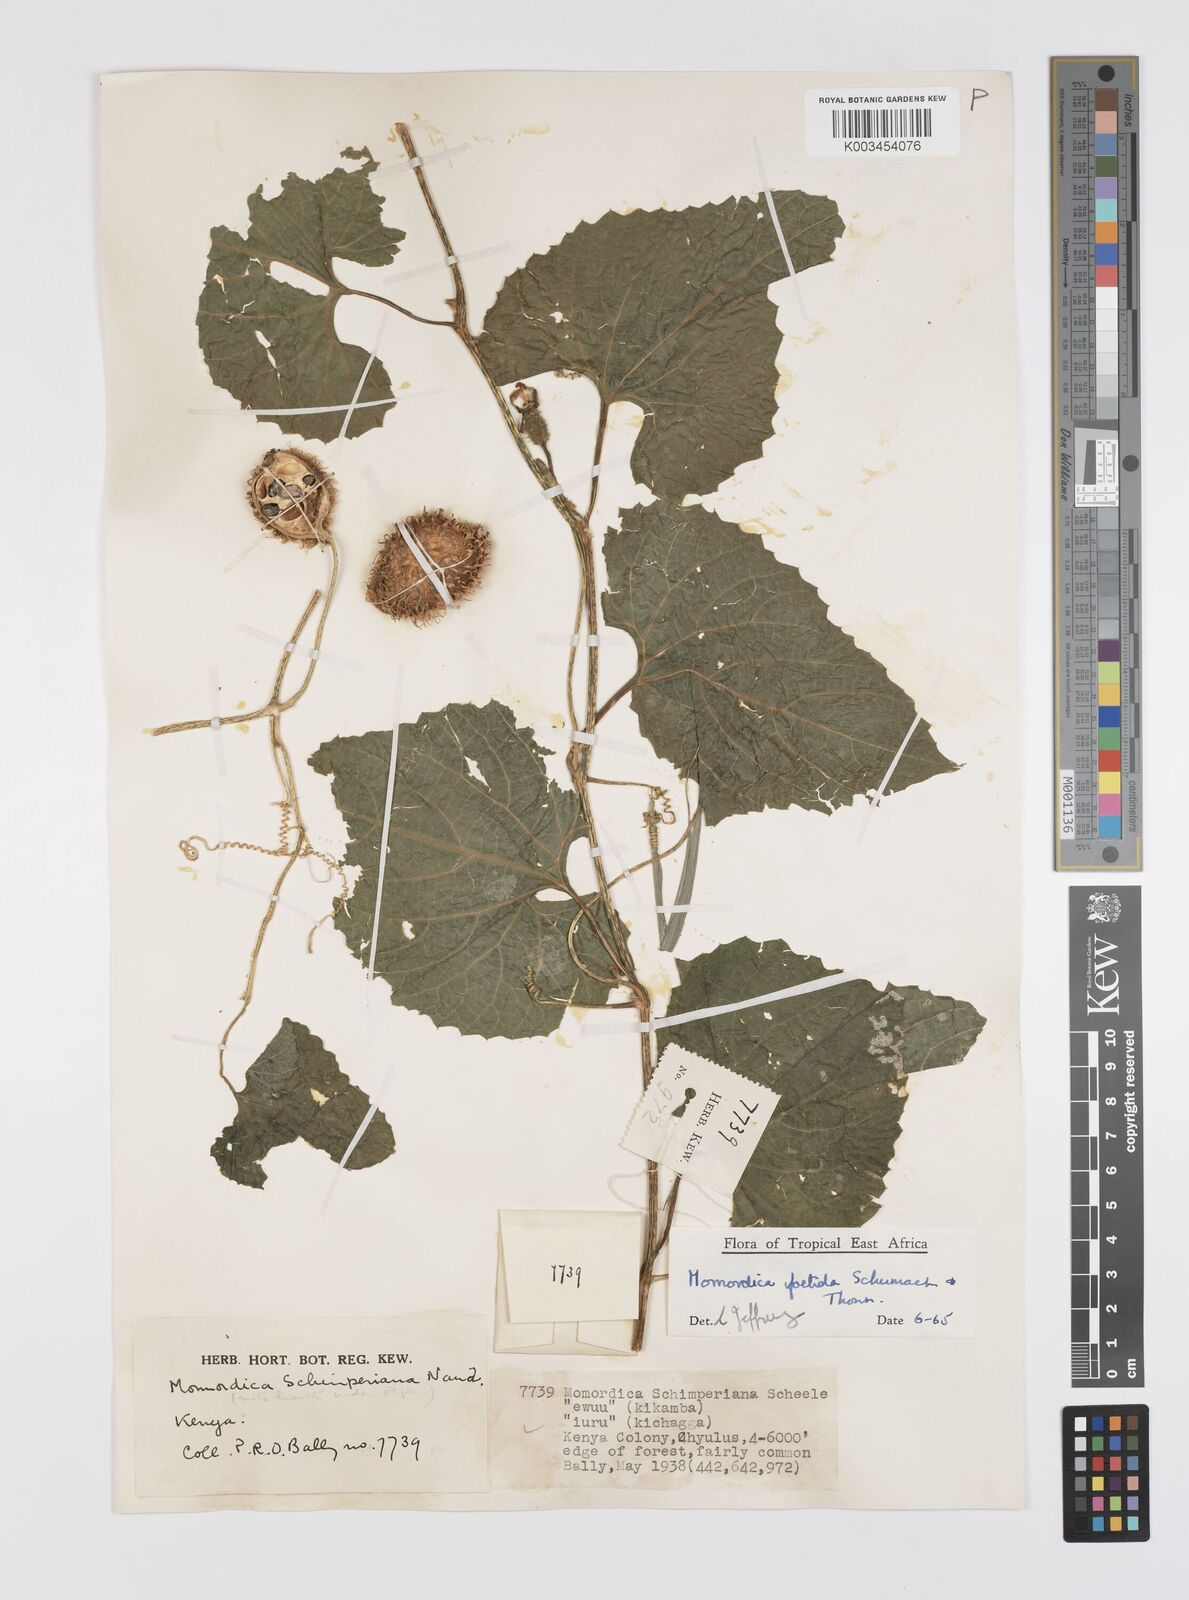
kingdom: Plantae
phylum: Tracheophyta
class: Magnoliopsida
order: Cucurbitales
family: Cucurbitaceae
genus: Momordica
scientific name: Momordica foetida
